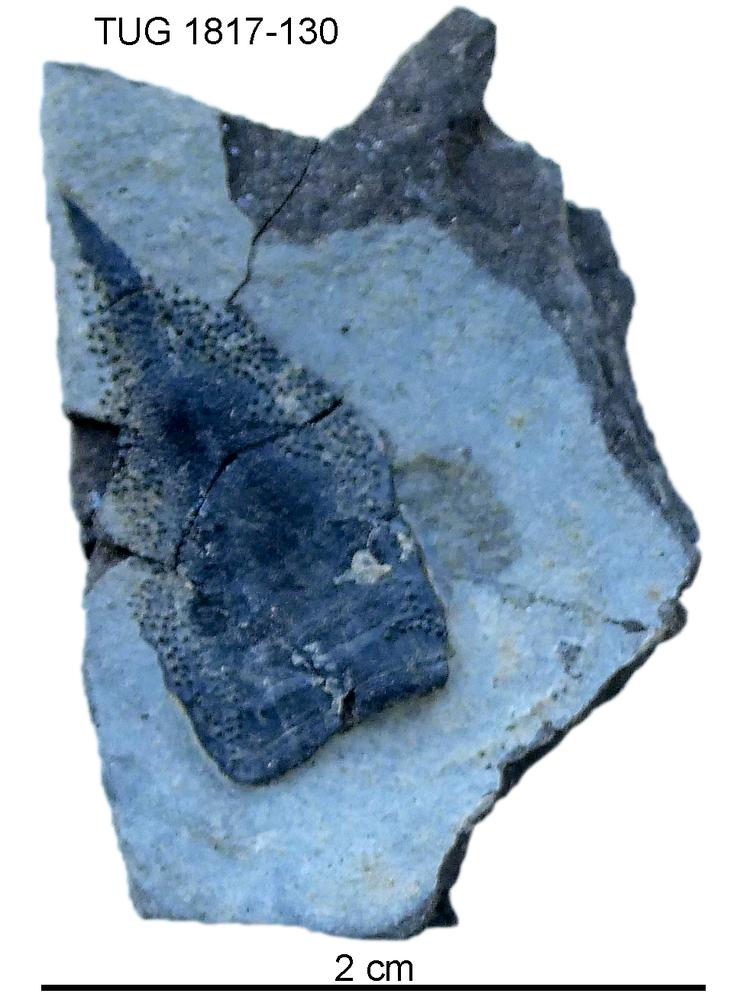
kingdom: Animalia
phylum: Chordata
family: Coccosteidae
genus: Millerosteus
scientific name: Millerosteus minor
